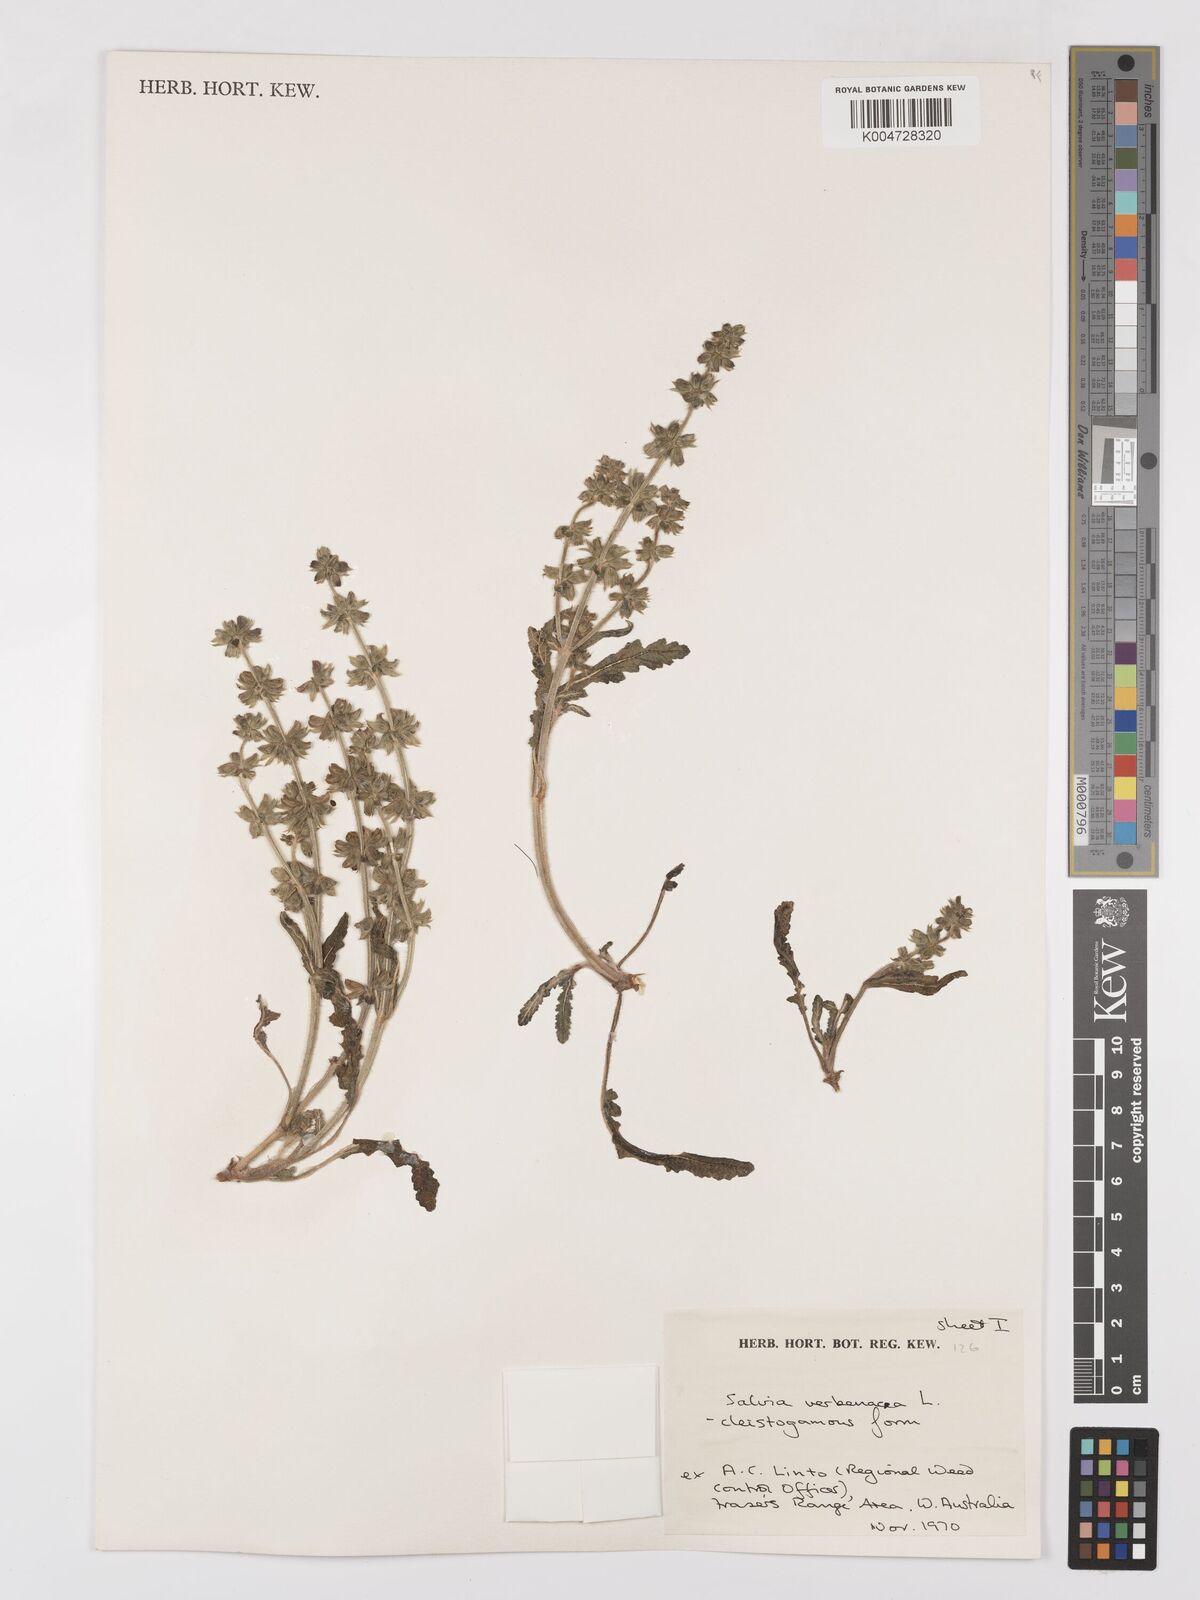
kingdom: Plantae
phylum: Tracheophyta
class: Magnoliopsida
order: Lamiales
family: Lamiaceae
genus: Salvia
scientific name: Salvia verbenaca
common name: Wild clary
